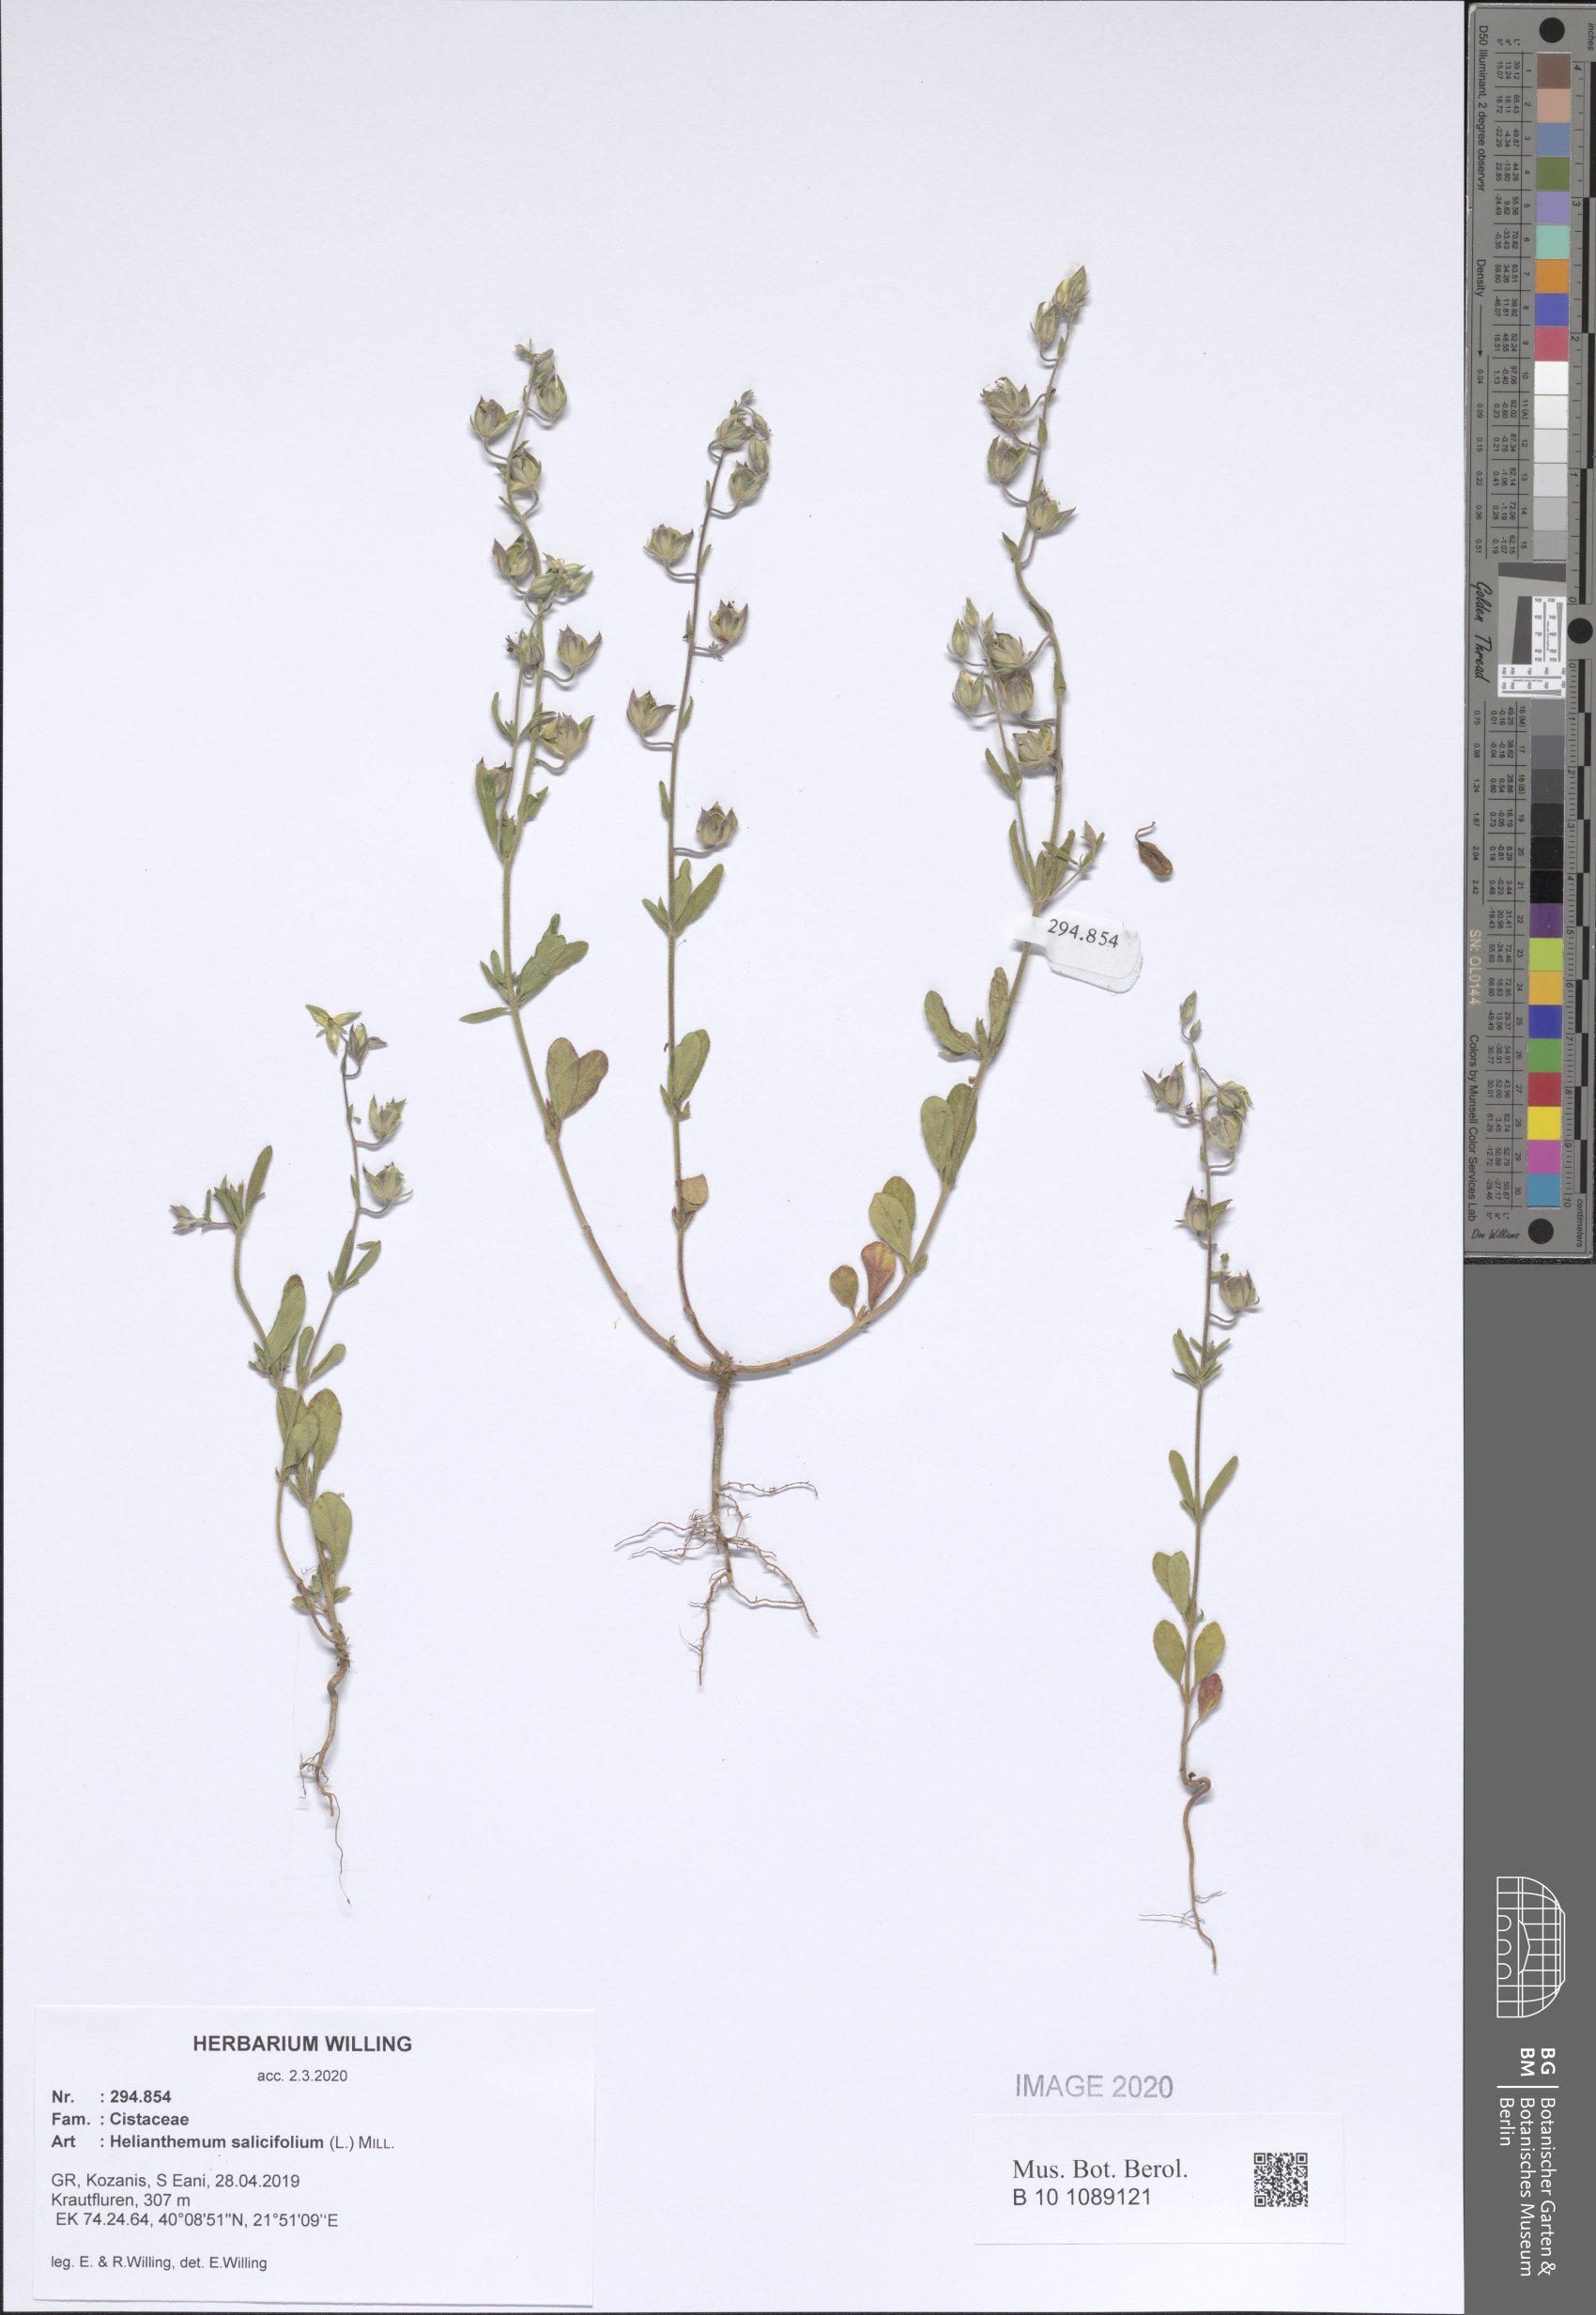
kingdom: Plantae
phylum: Tracheophyta
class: Magnoliopsida
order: Malvales
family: Cistaceae
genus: Helianthemum
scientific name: Helianthemum salicifolium
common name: Willowleaf frostweed
